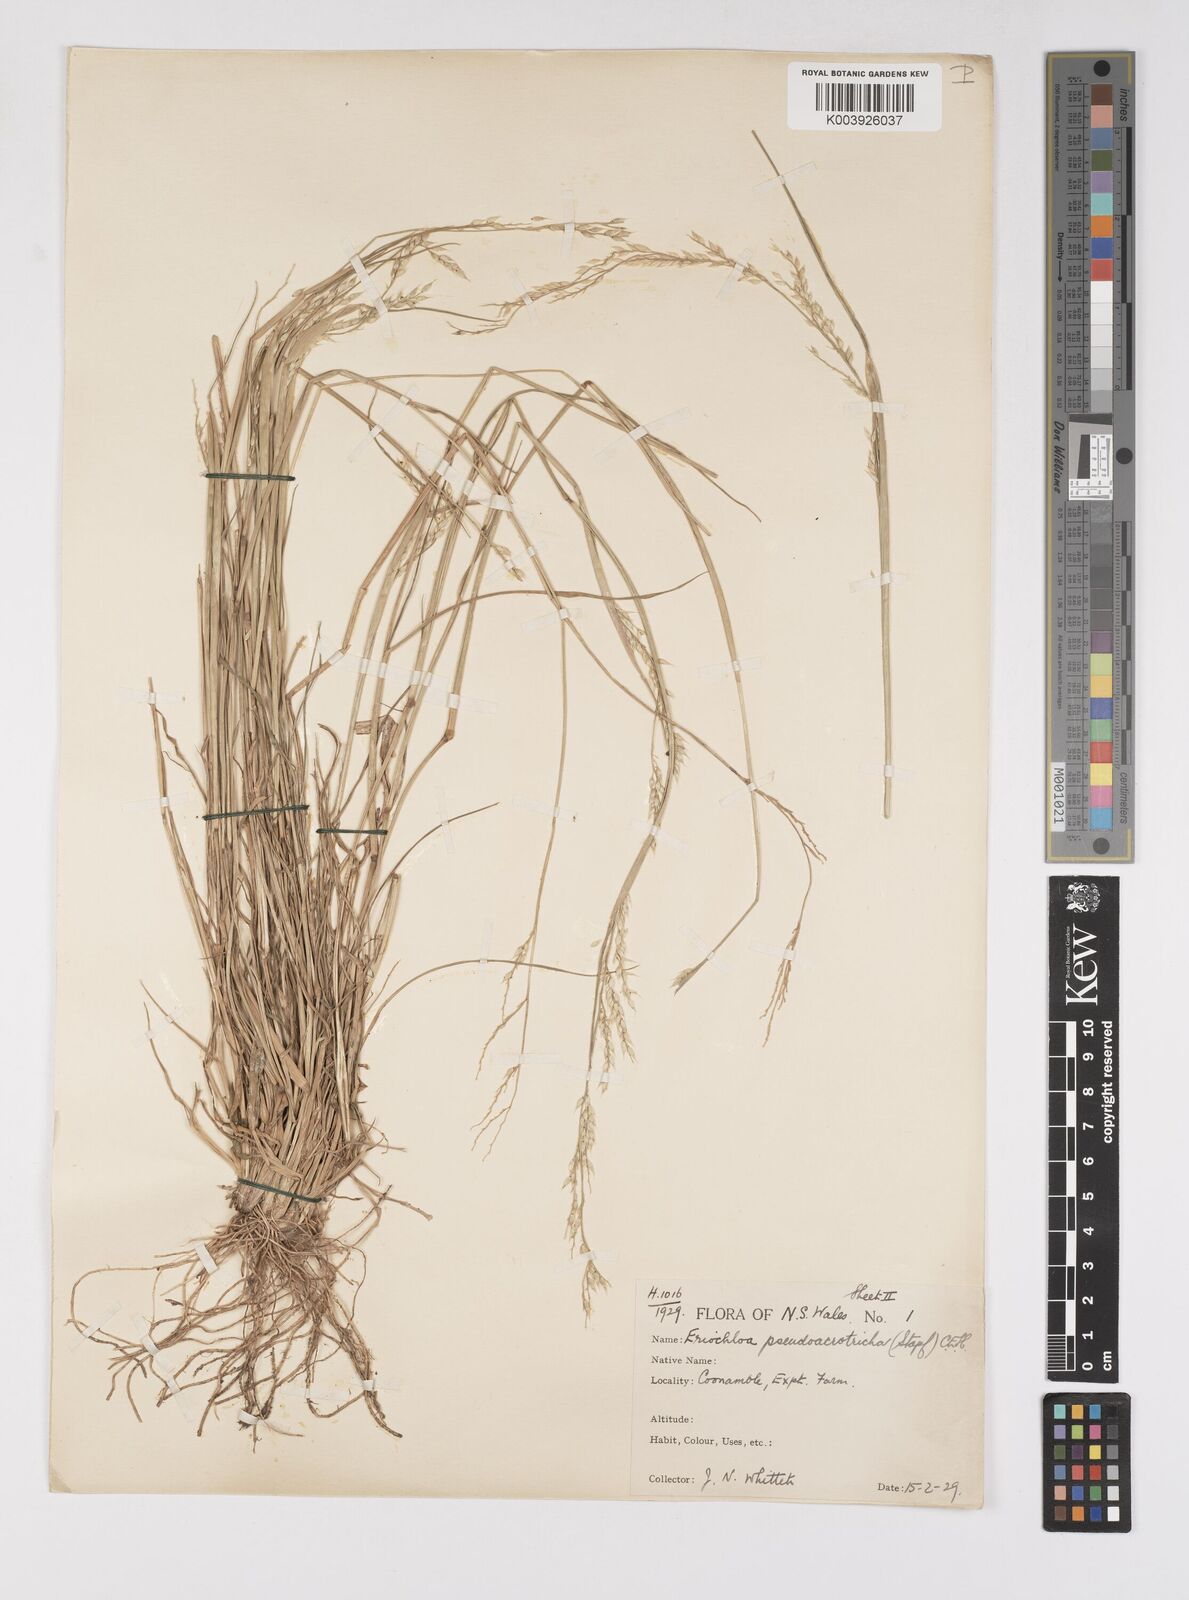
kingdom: Plantae
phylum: Tracheophyta
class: Liliopsida
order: Poales
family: Poaceae
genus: Eriochloa
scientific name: Eriochloa pseudoacrotricha
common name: Perennial cup-grass
